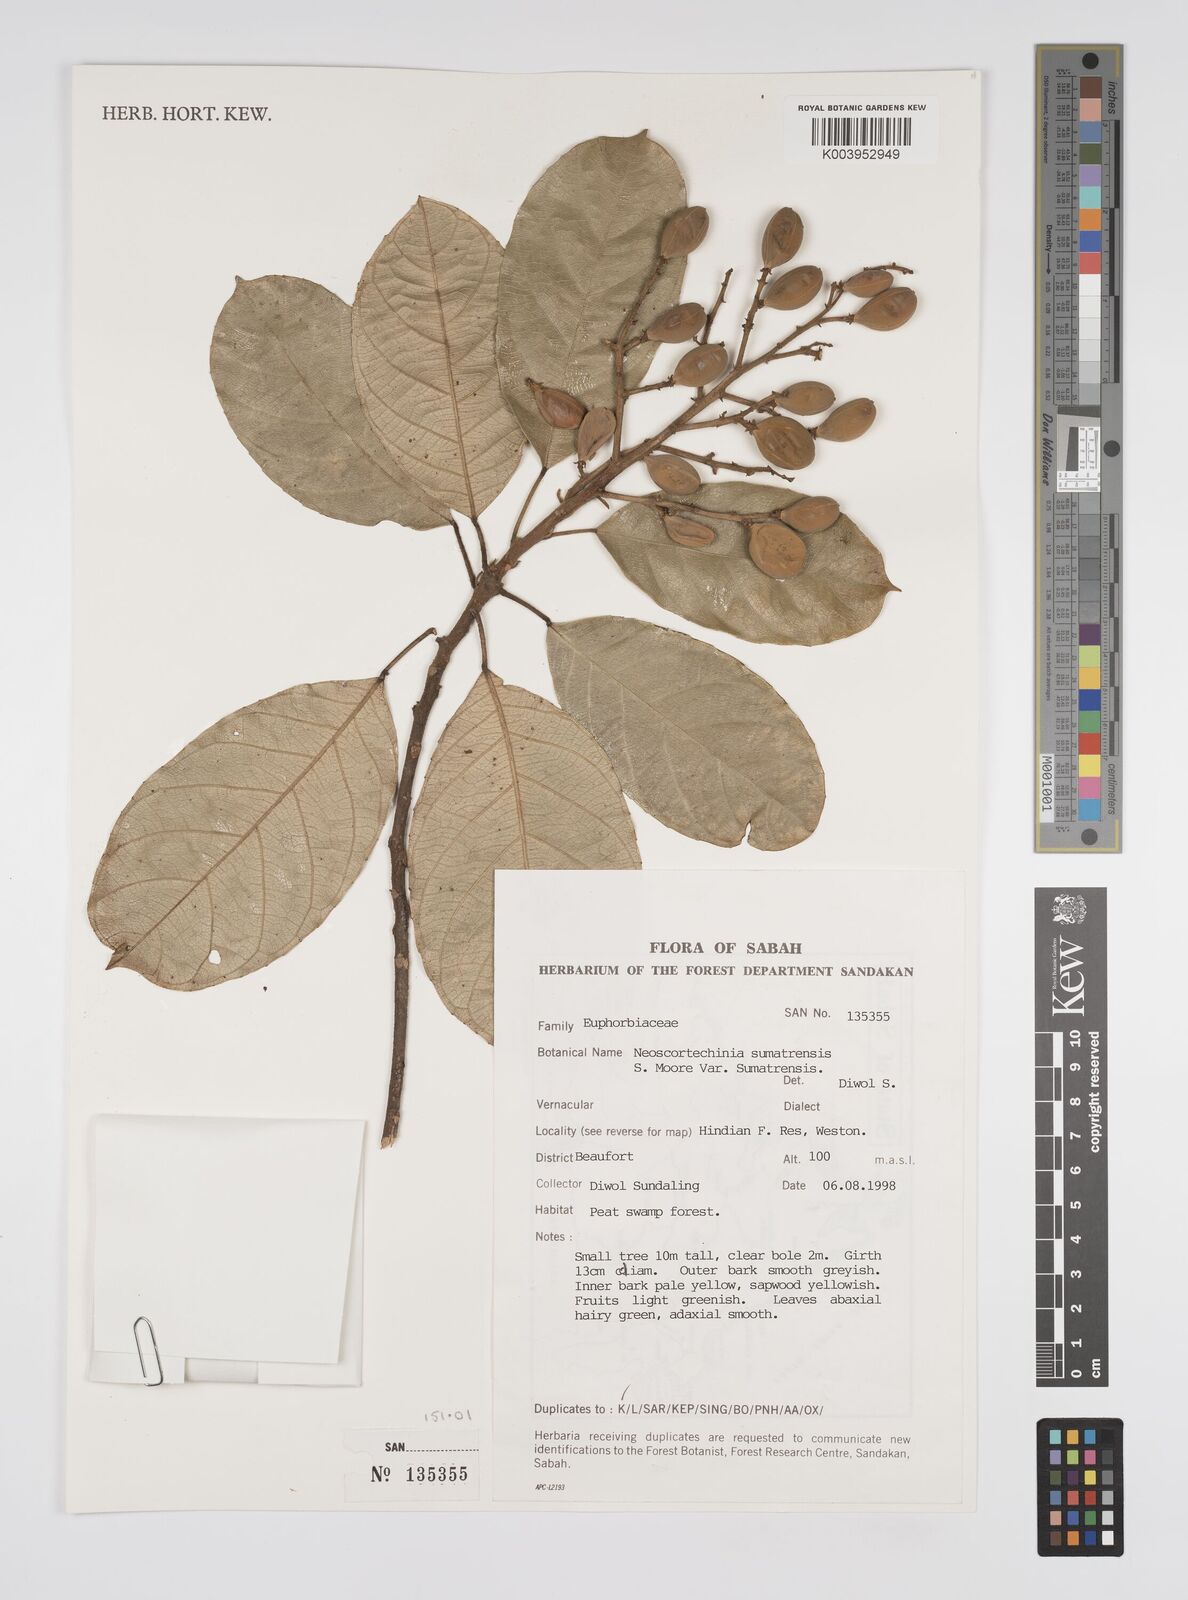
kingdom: Plantae
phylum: Tracheophyta
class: Magnoliopsida
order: Malpighiales
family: Euphorbiaceae
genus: Neoscortechinia
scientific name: Neoscortechinia sumatrensis
